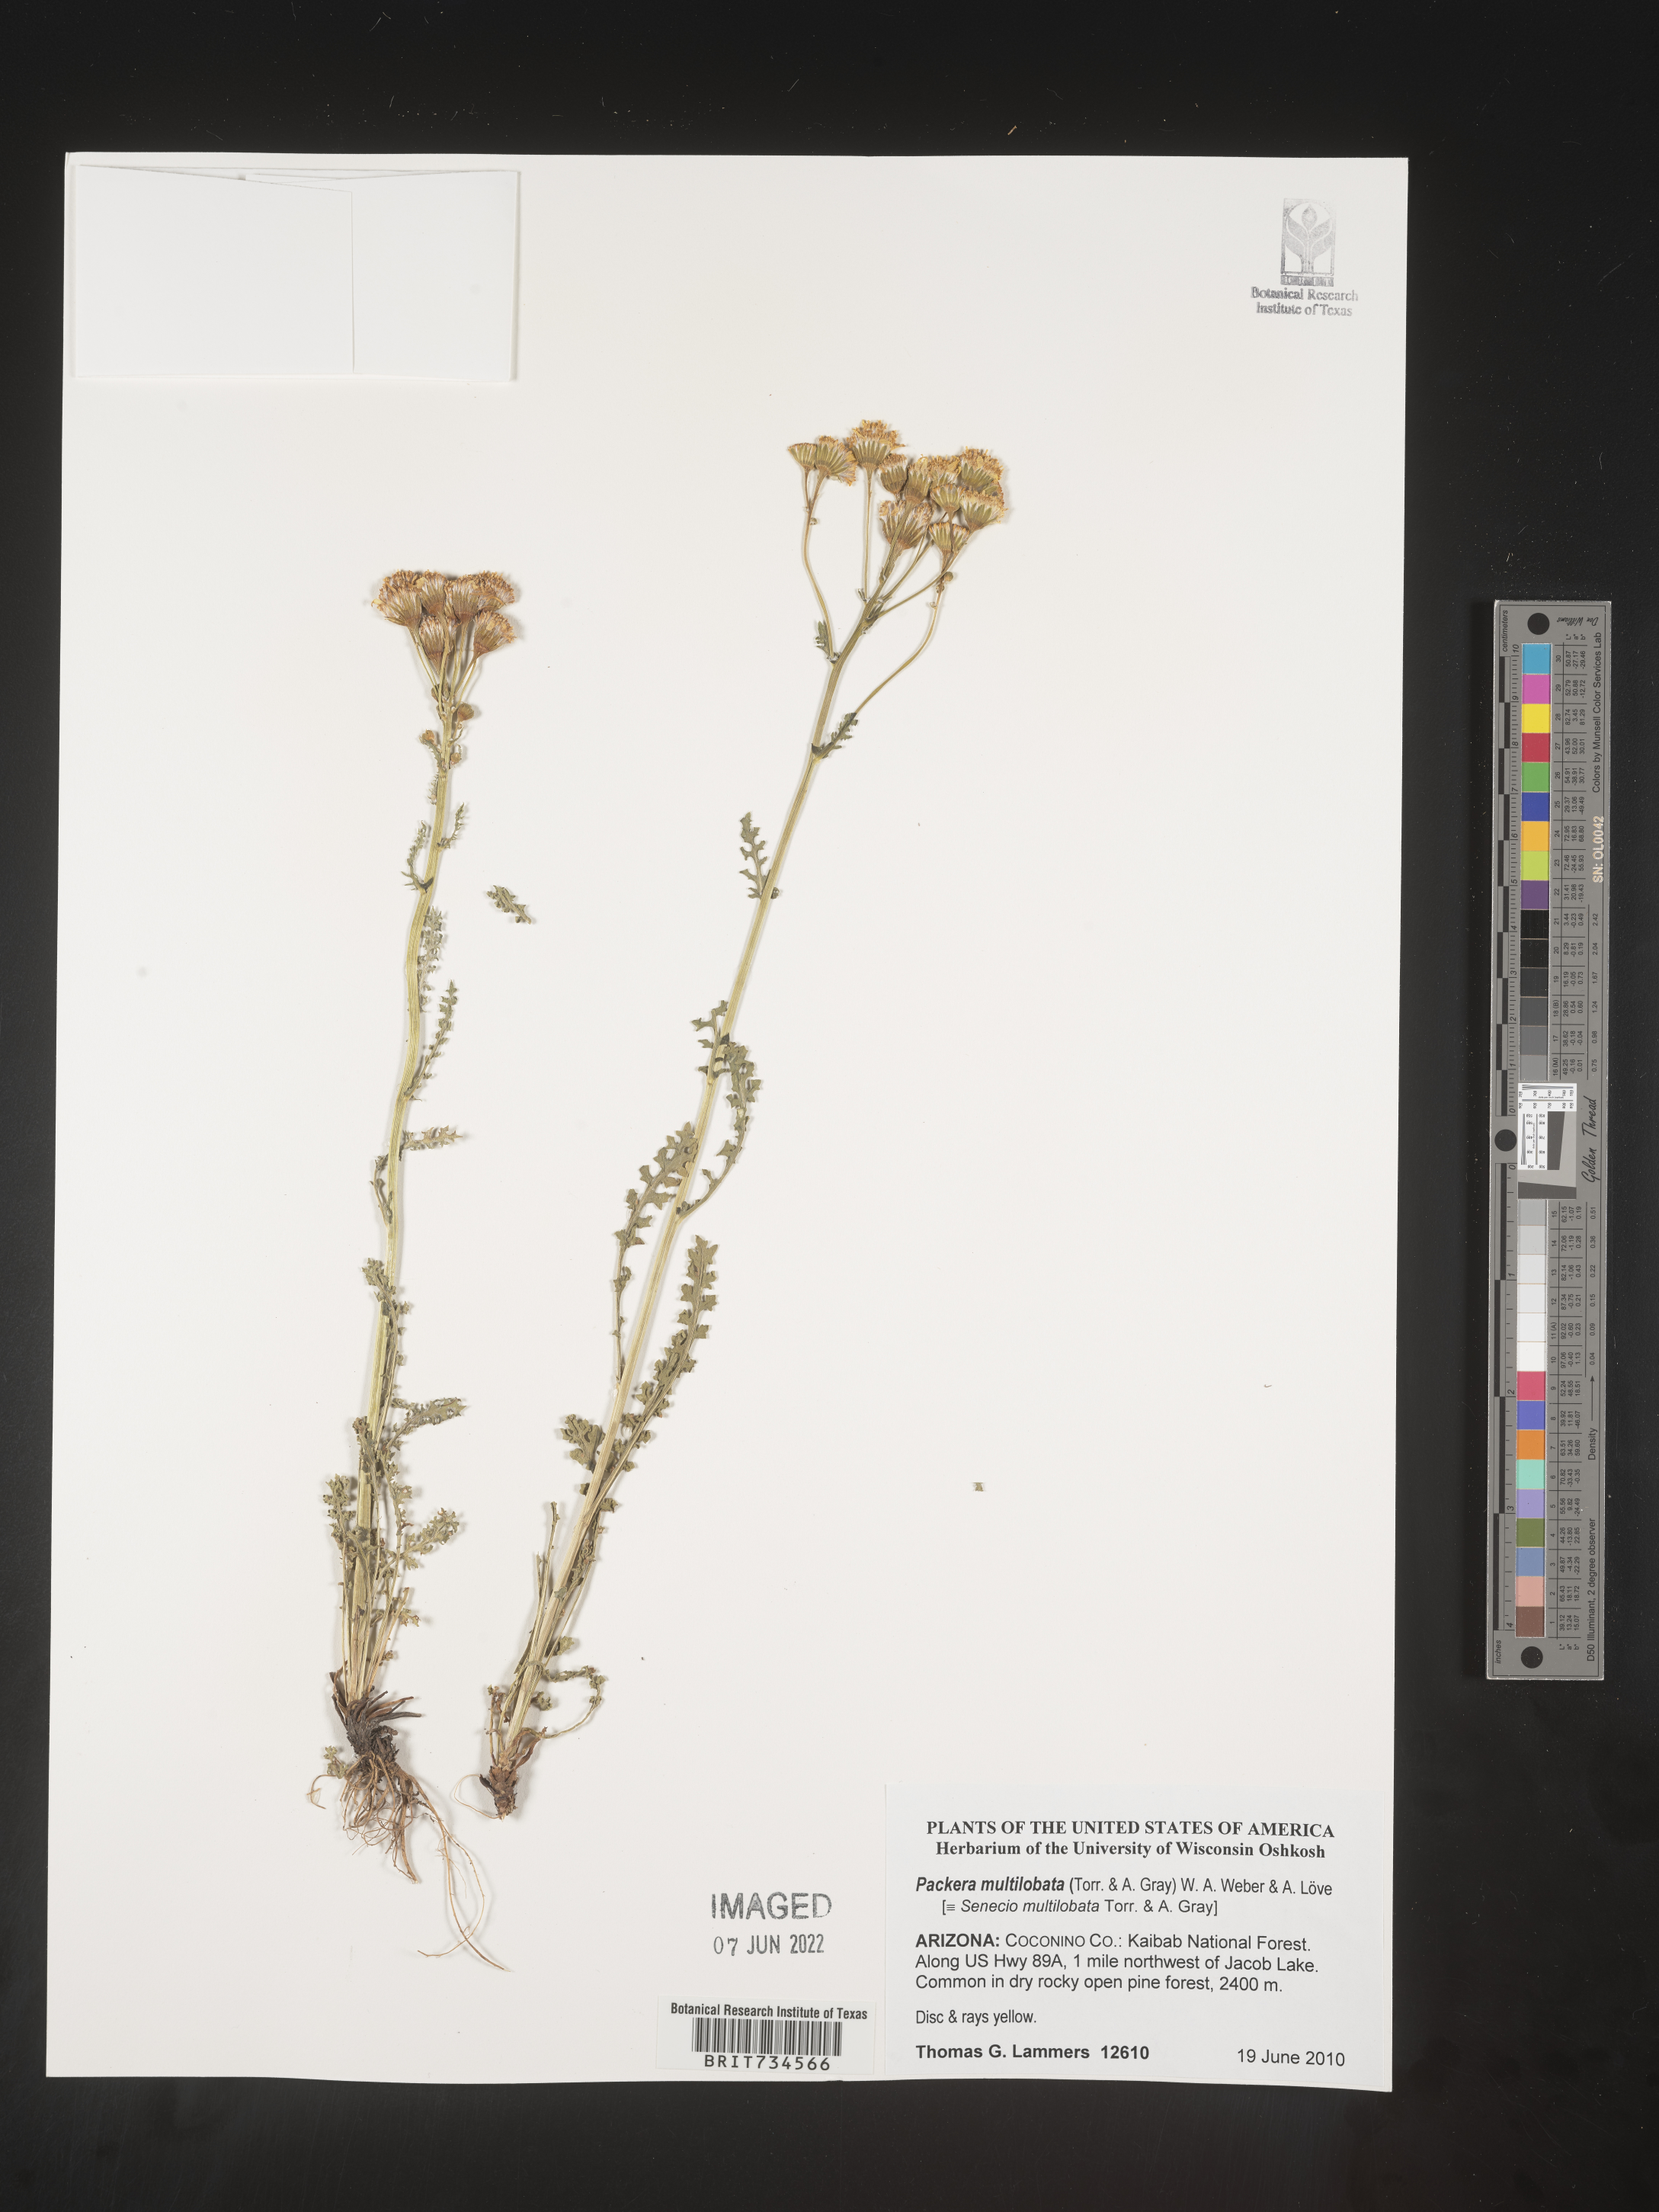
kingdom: Plantae
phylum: Tracheophyta
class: Magnoliopsida
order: Asterales
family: Asteraceae
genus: Packera
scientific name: Packera multilobata
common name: Lobe-leaf groundsel
